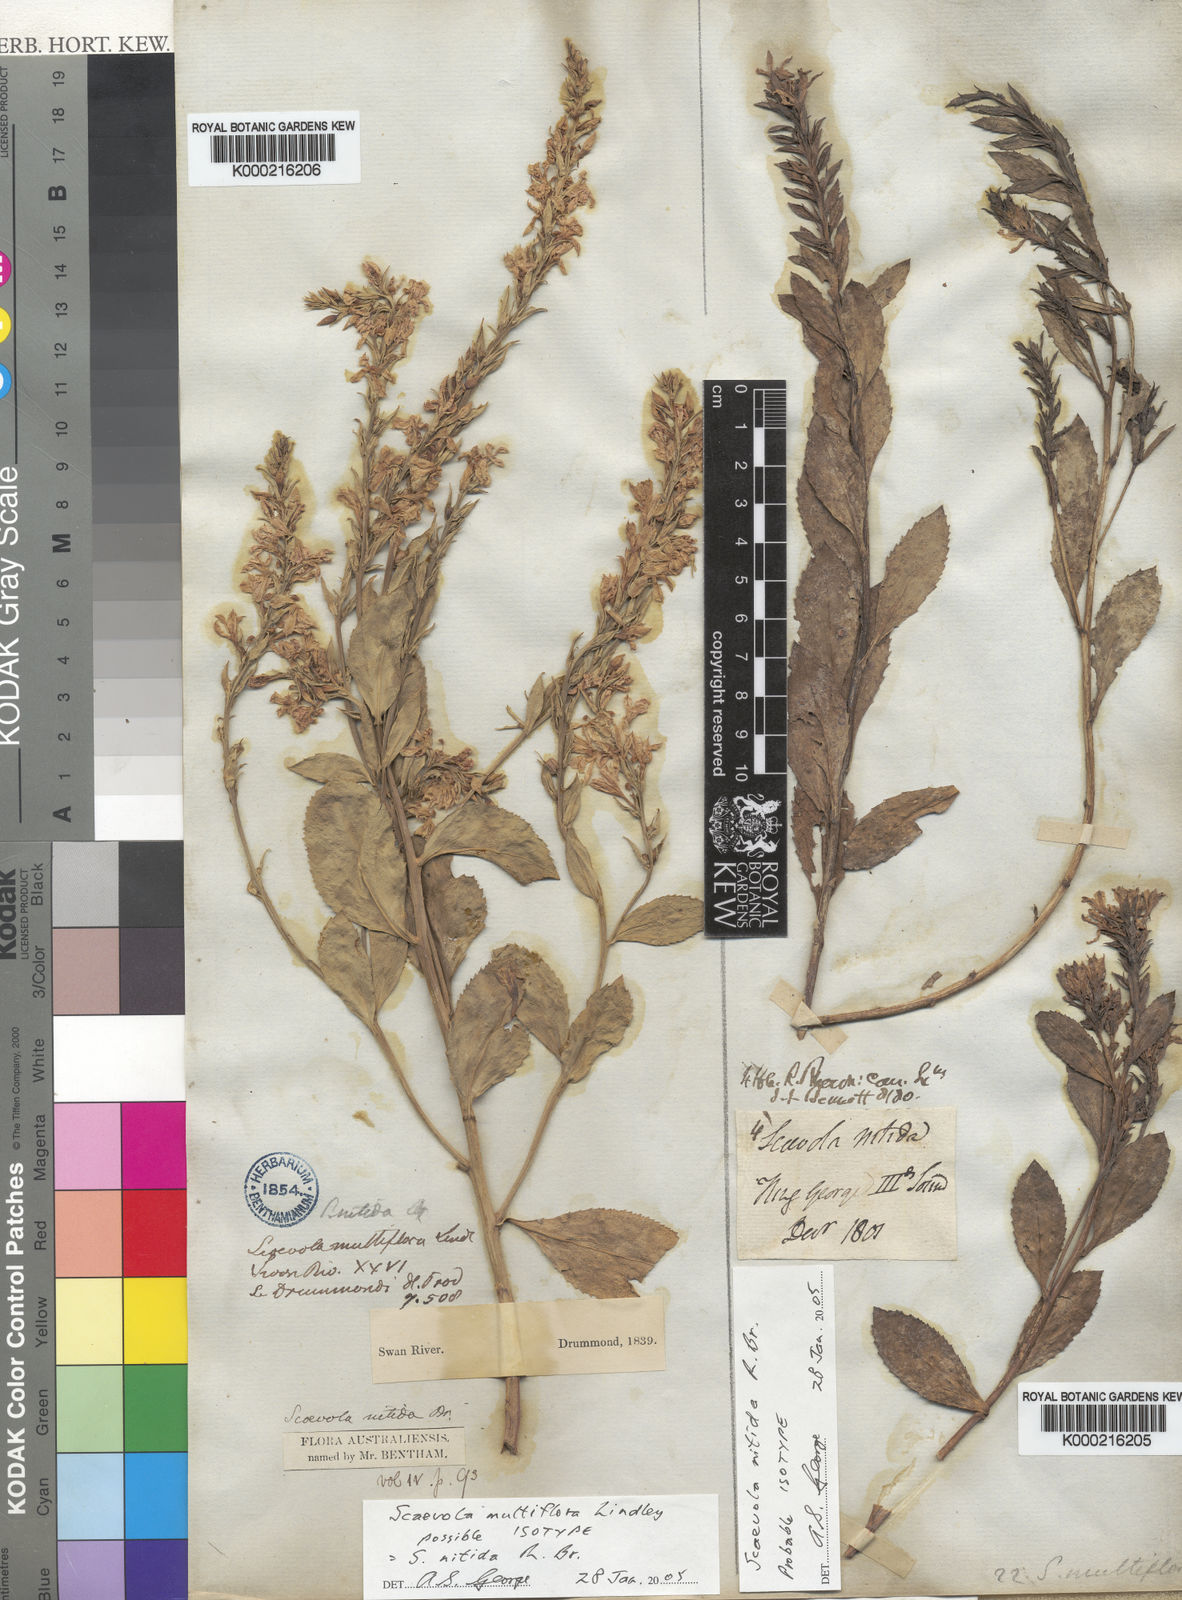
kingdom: Plantae
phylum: Tracheophyta
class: Magnoliopsida
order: Asterales
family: Goodeniaceae
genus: Scaevola
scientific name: Scaevola nitida
